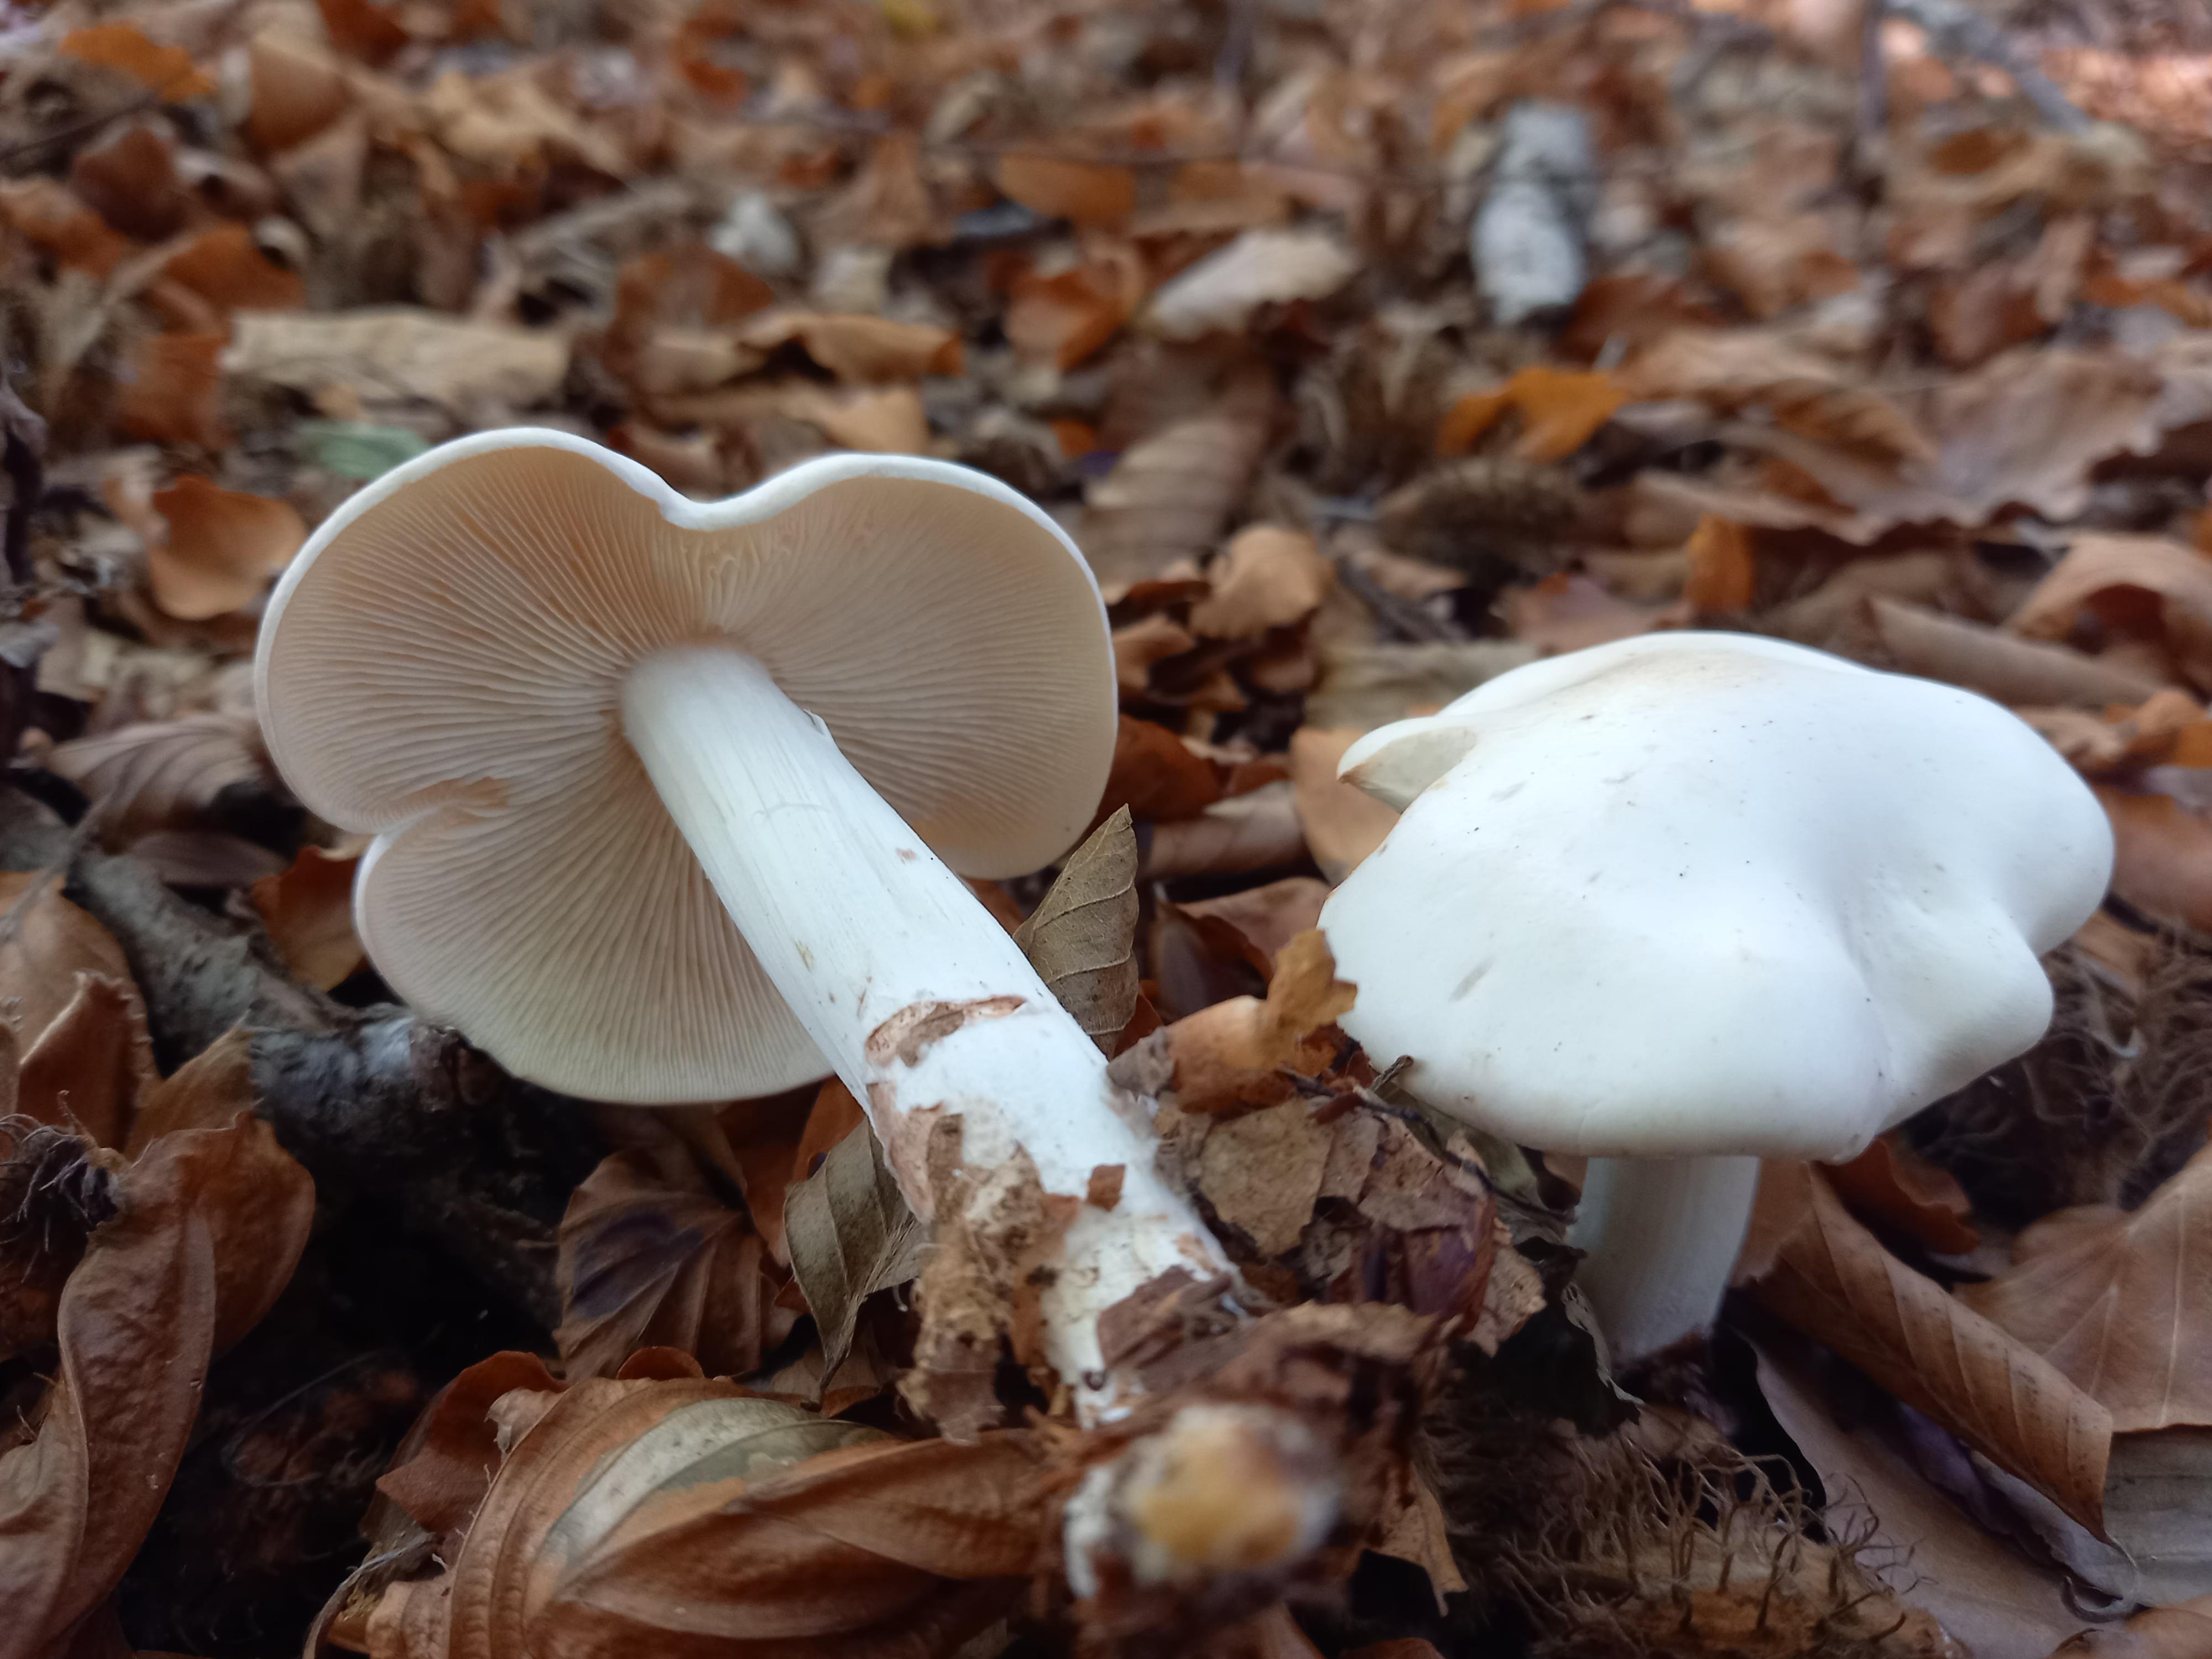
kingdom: Fungi
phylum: Basidiomycota
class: Agaricomycetes
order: Agaricales
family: Tricholomataceae
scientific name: Tricholomataceae
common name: ridderhatfamilien
